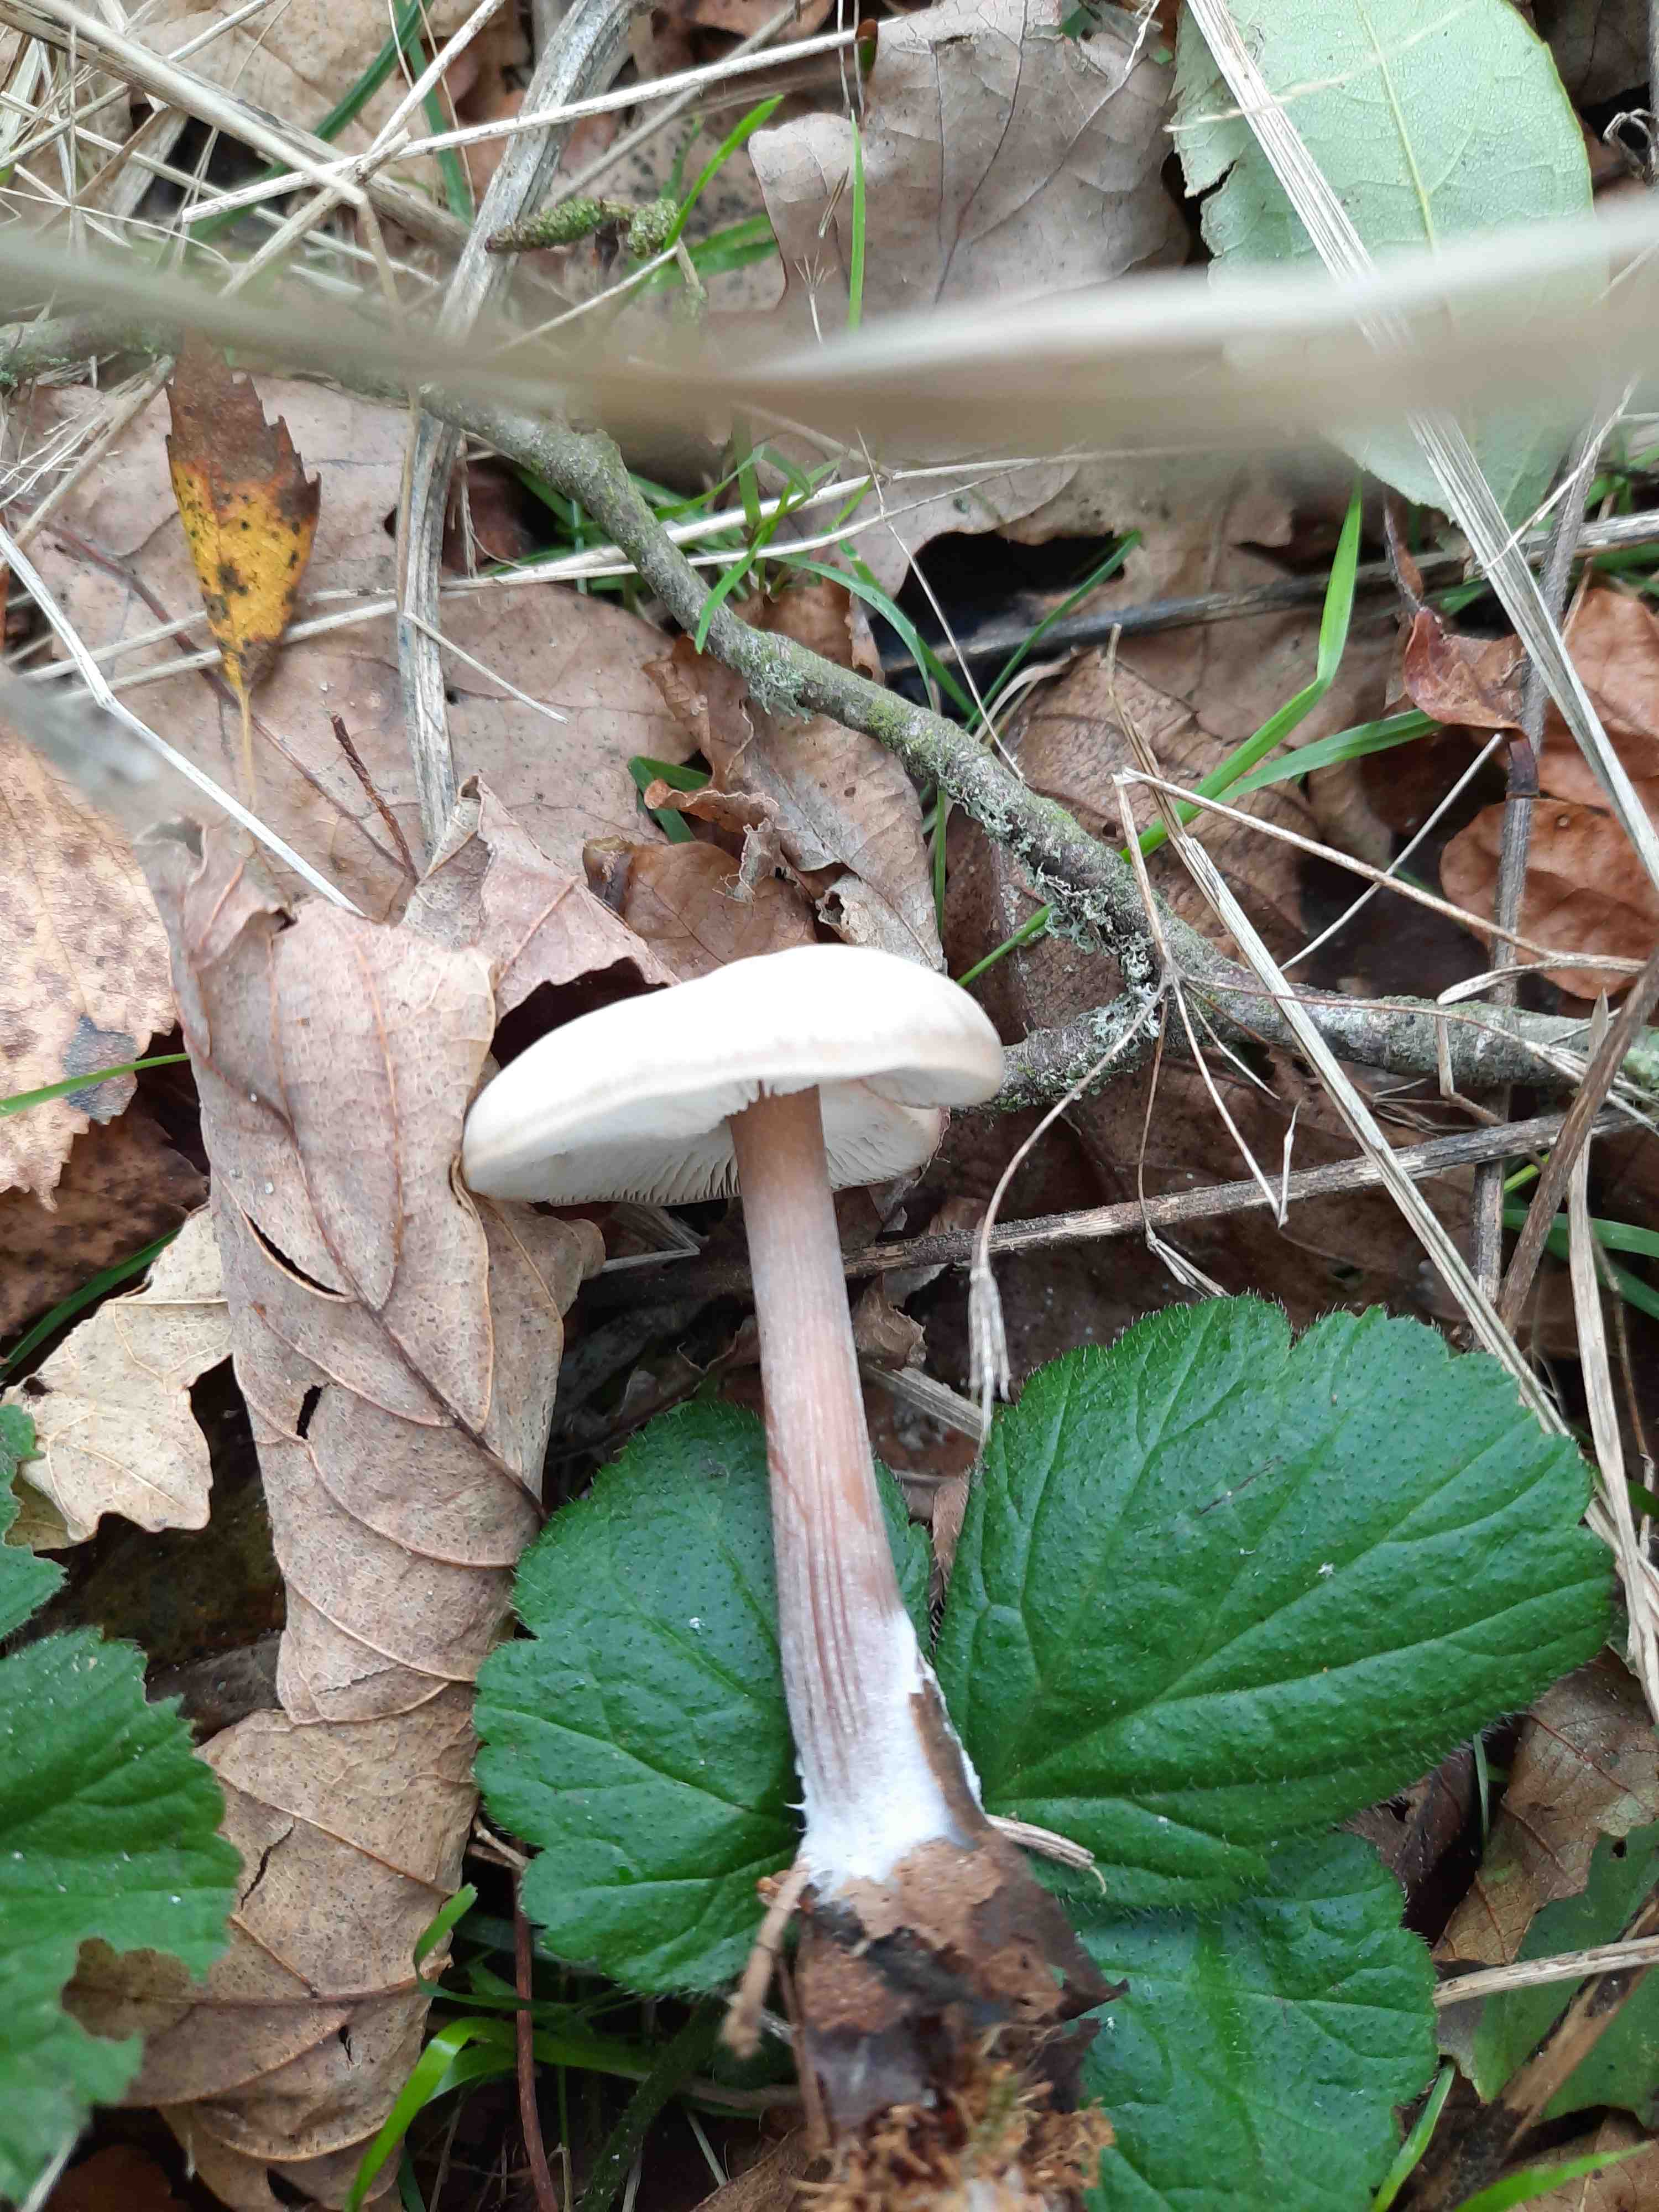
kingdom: Fungi
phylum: Basidiomycota
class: Agaricomycetes
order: Agaricales
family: Omphalotaceae
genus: Rhodocollybia
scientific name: Rhodocollybia asema
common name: horngrå fladhat
